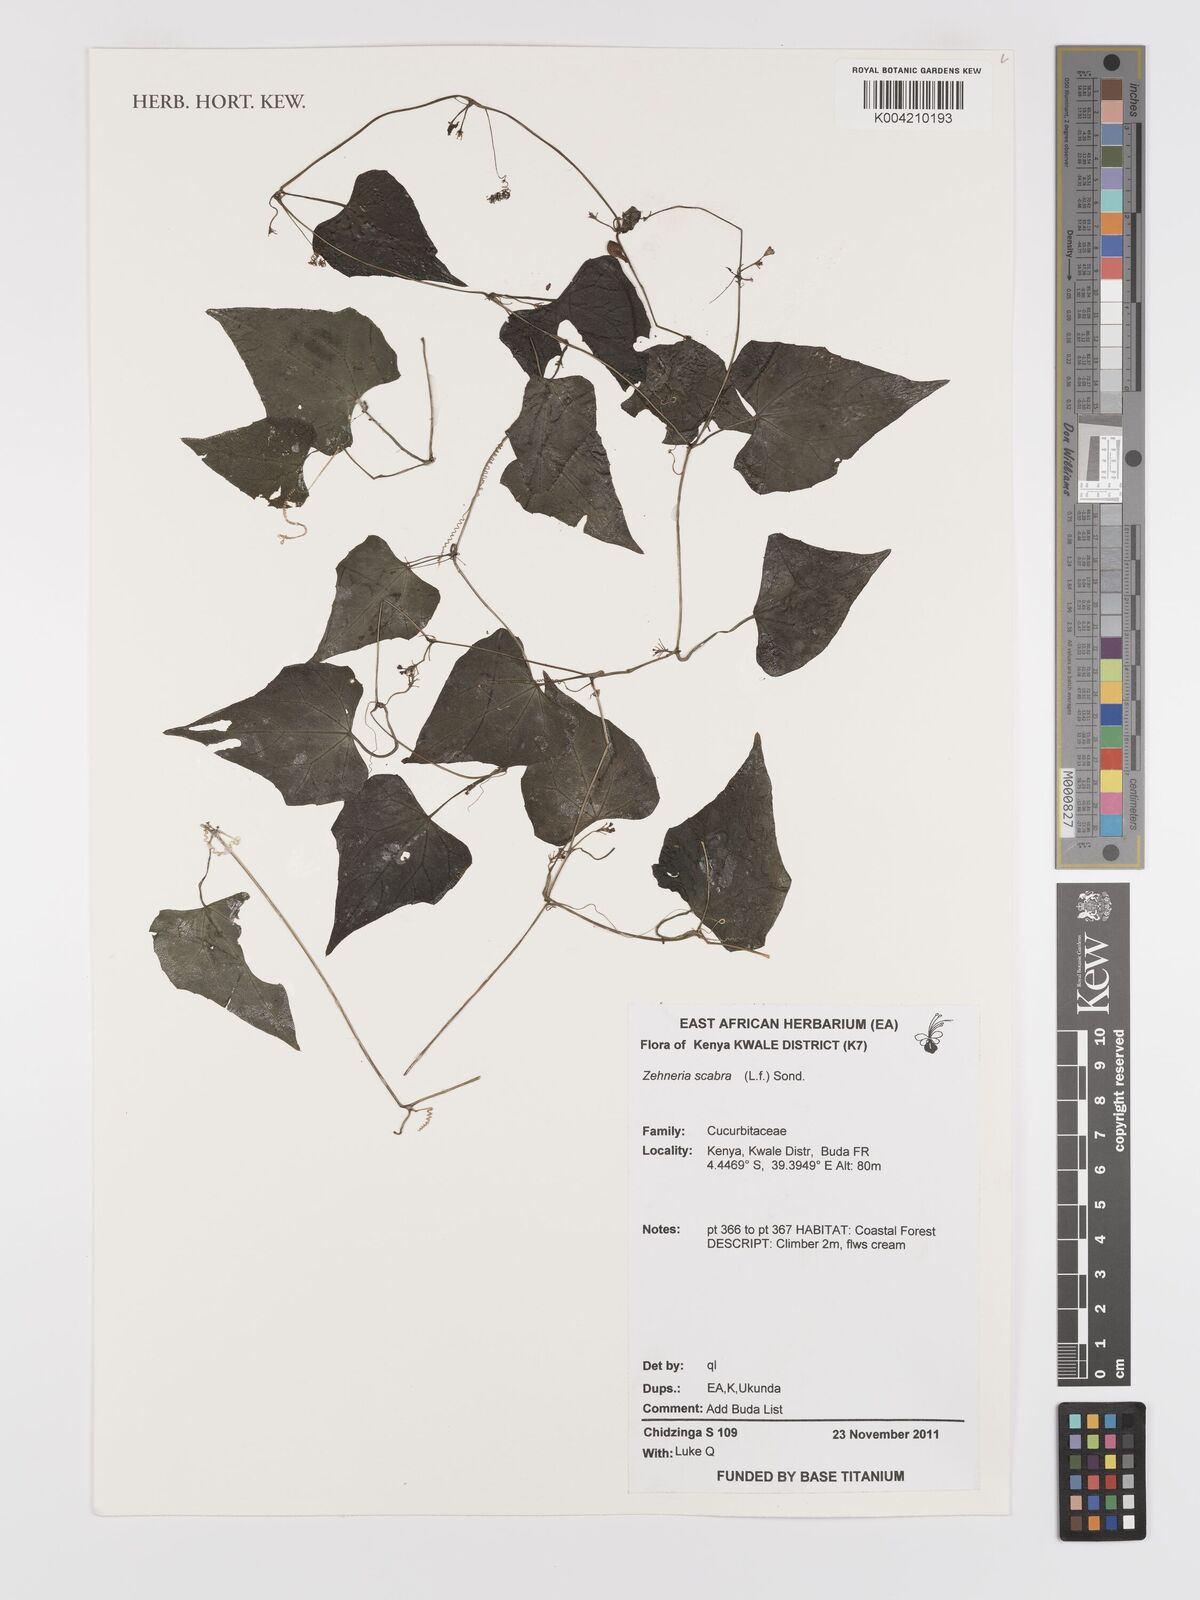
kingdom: Plantae
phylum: Tracheophyta
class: Magnoliopsida
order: Cucurbitales
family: Cucurbitaceae
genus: Zehneria
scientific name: Zehneria scabra
